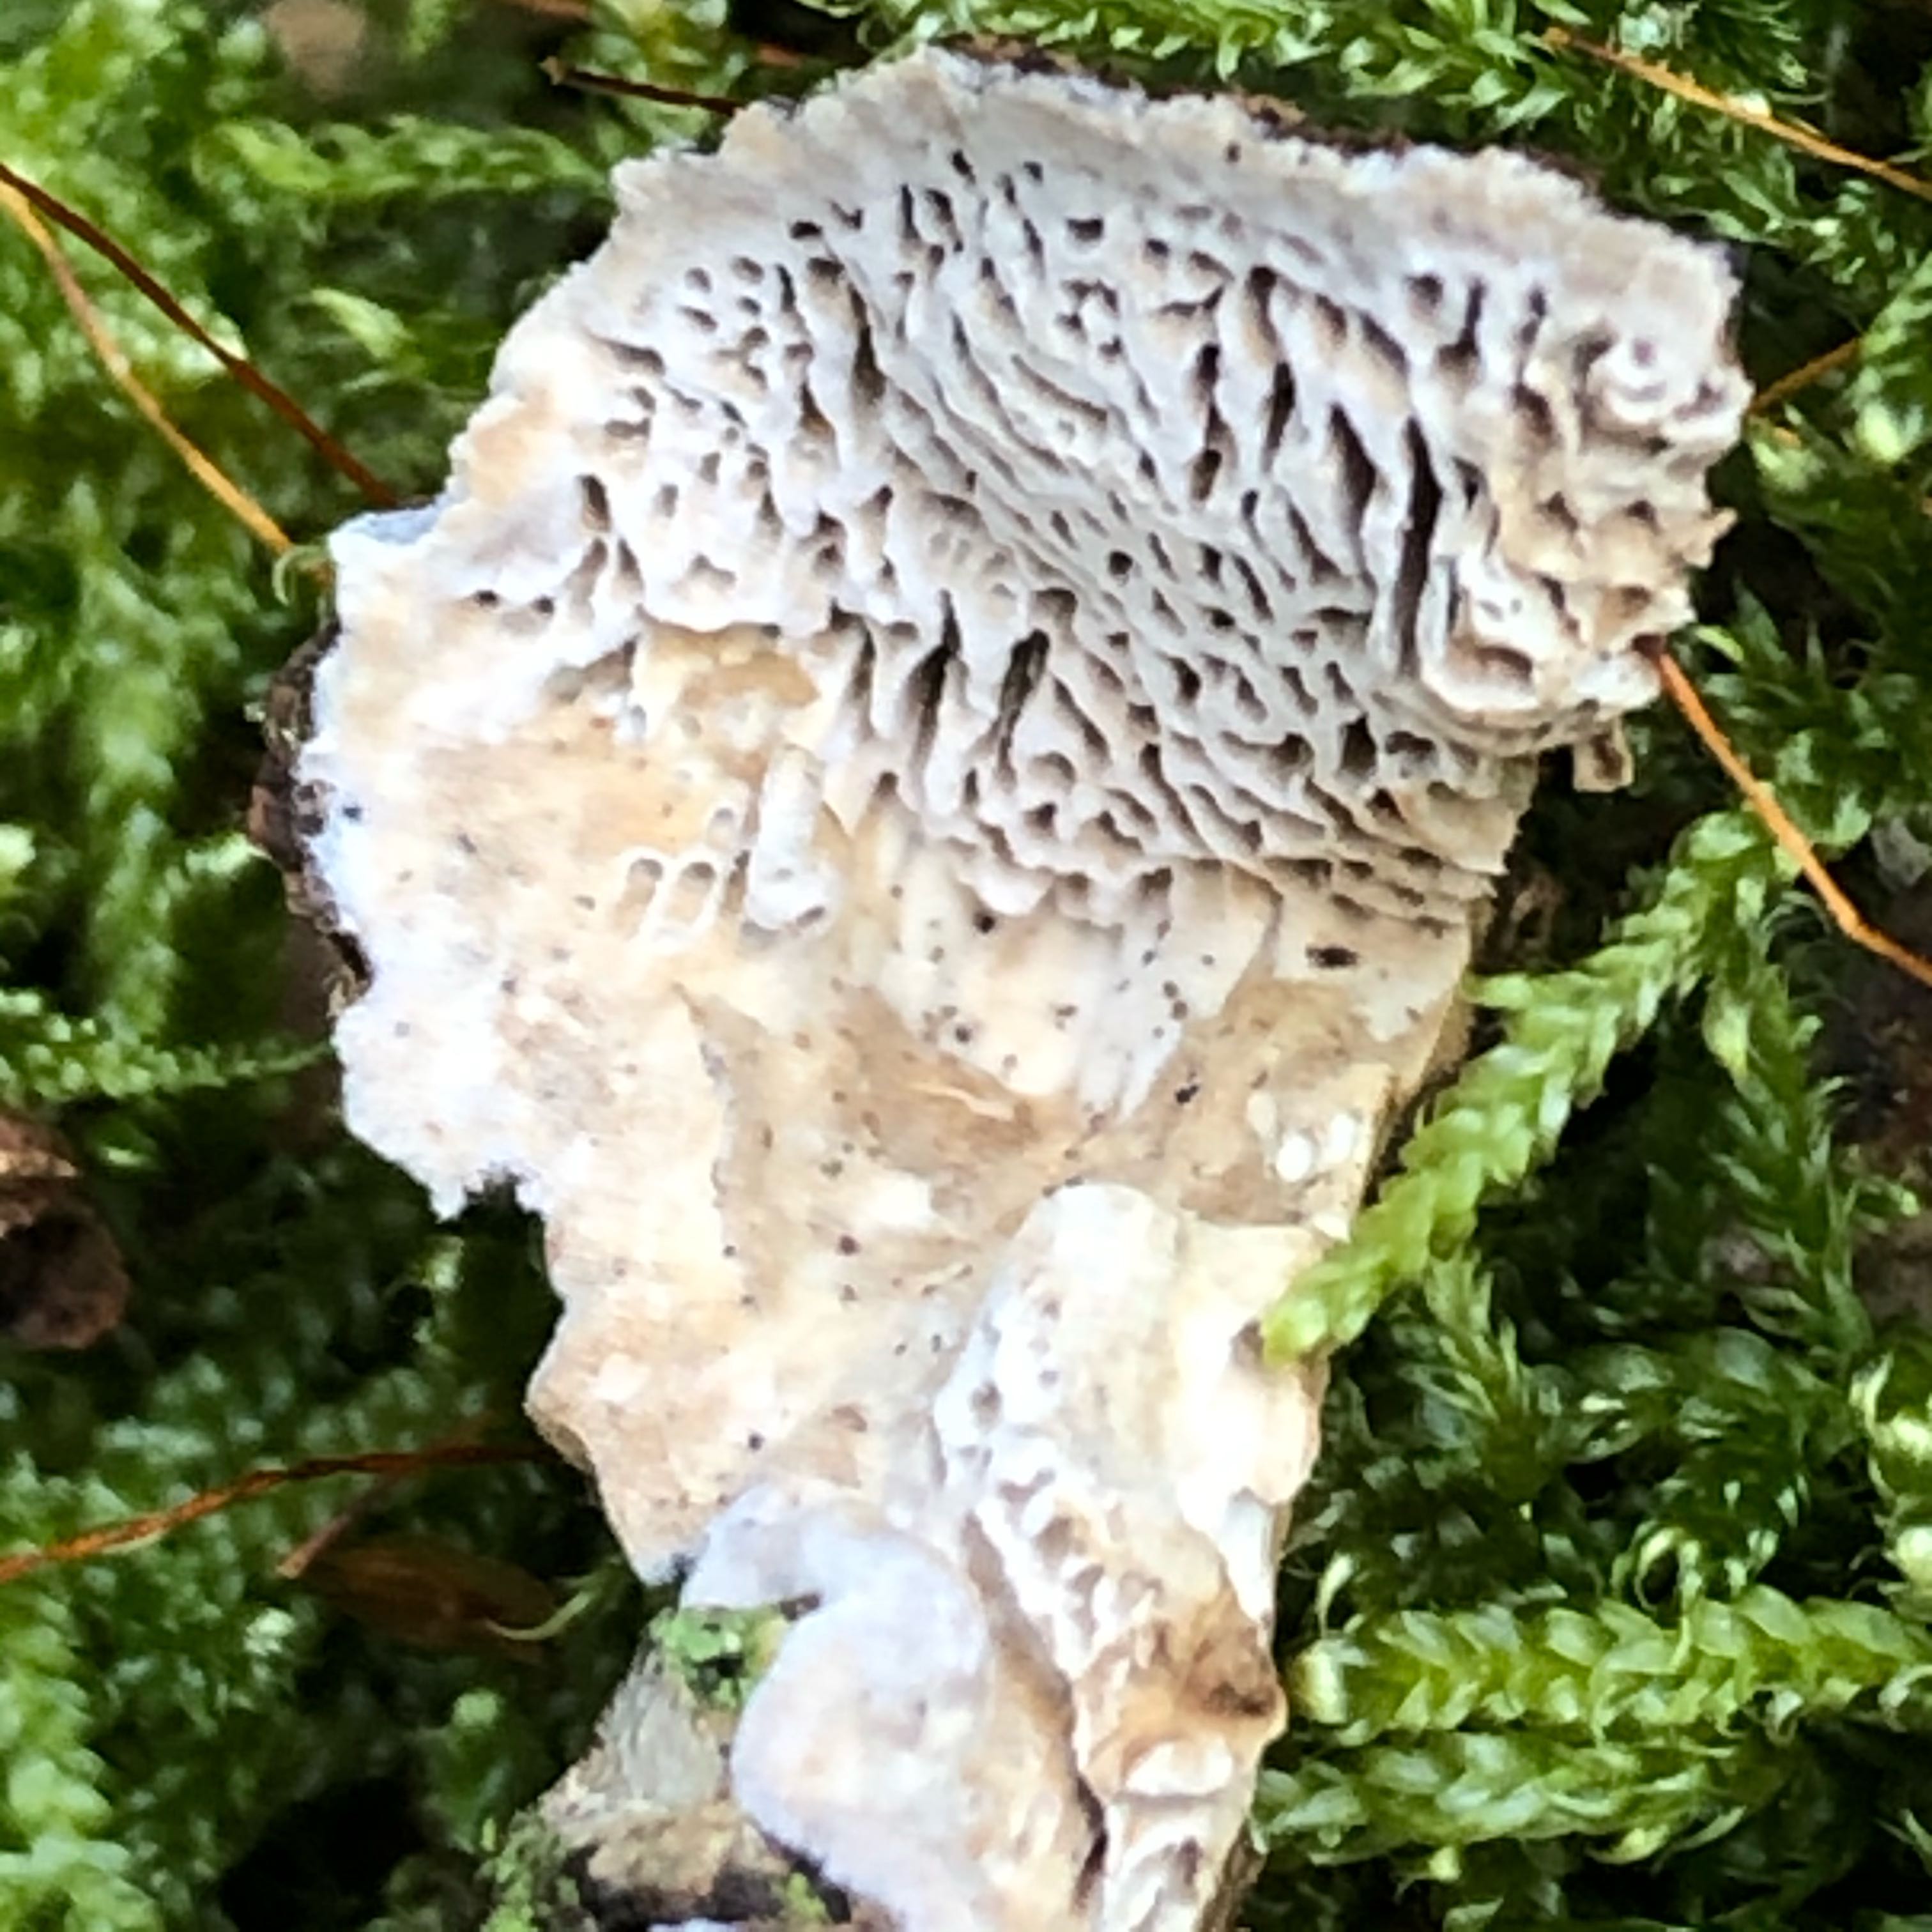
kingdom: Fungi
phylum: Basidiomycota
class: Agaricomycetes
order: Polyporales
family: Polyporaceae
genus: Podofomes
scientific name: Podofomes mollis
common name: blød begporesvamp
